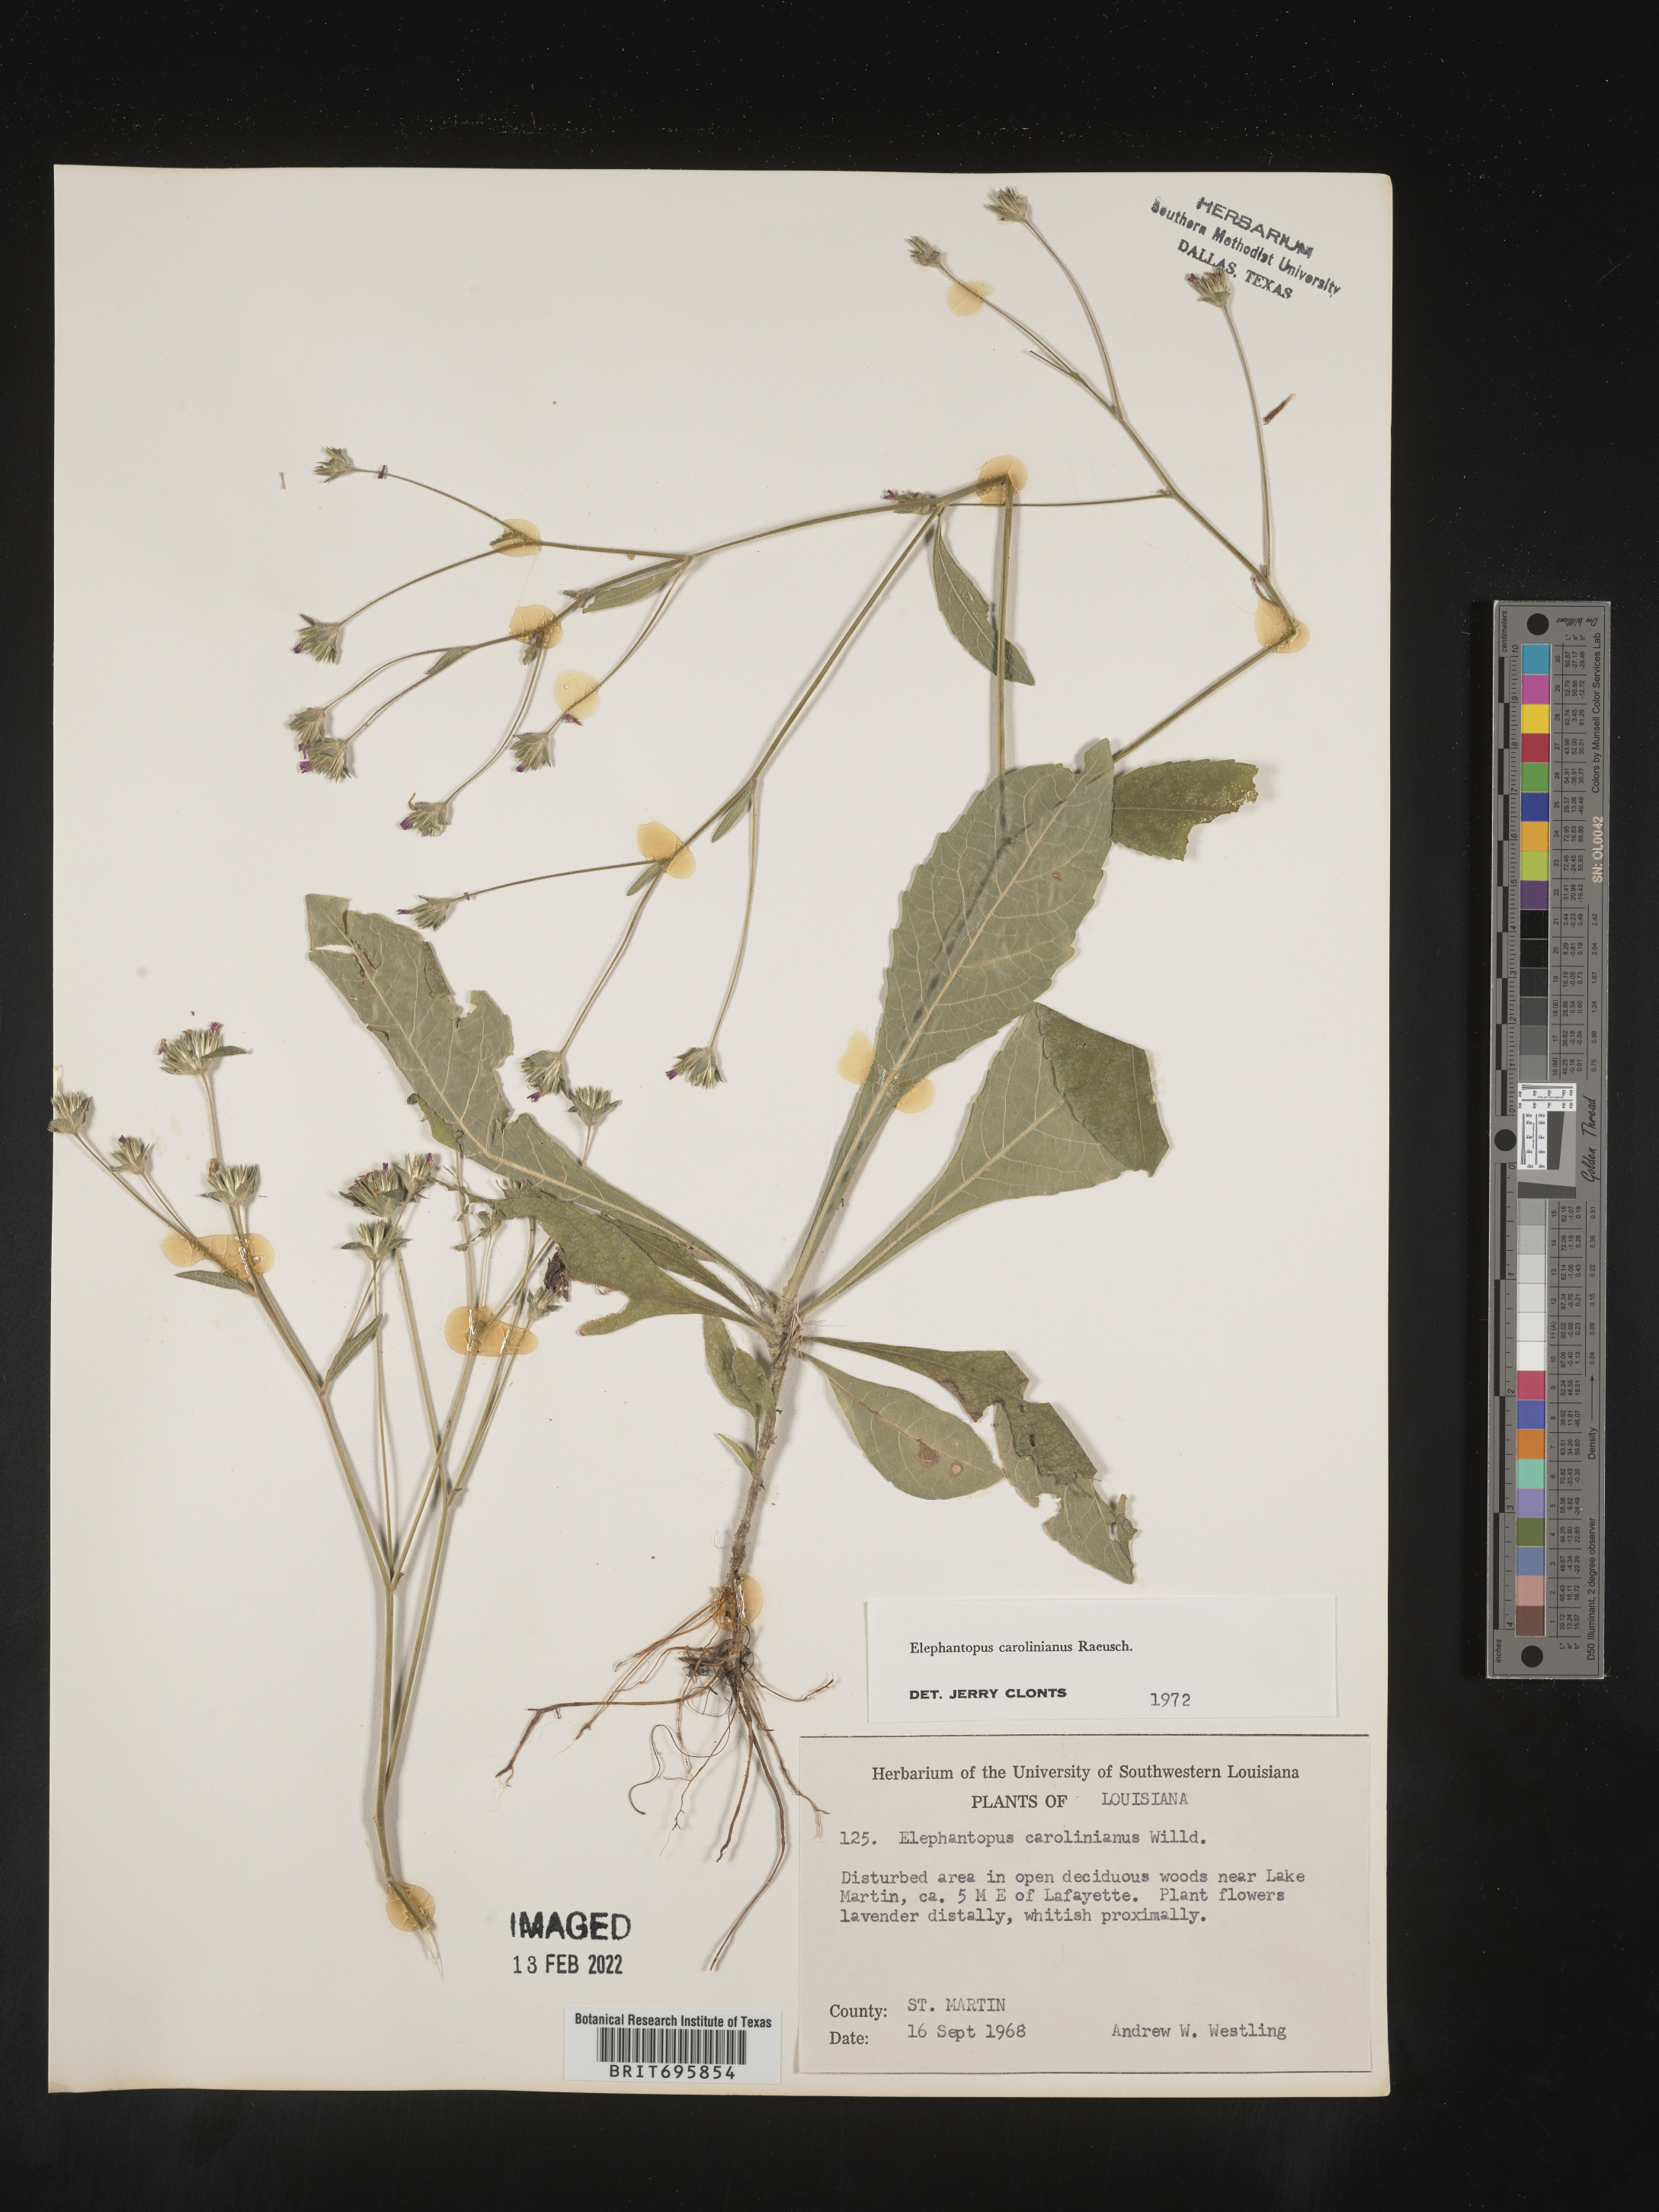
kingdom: Plantae
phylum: Tracheophyta
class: Magnoliopsida
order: Asterales
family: Asteraceae
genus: Elephantopus
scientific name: Elephantopus carolinianus
